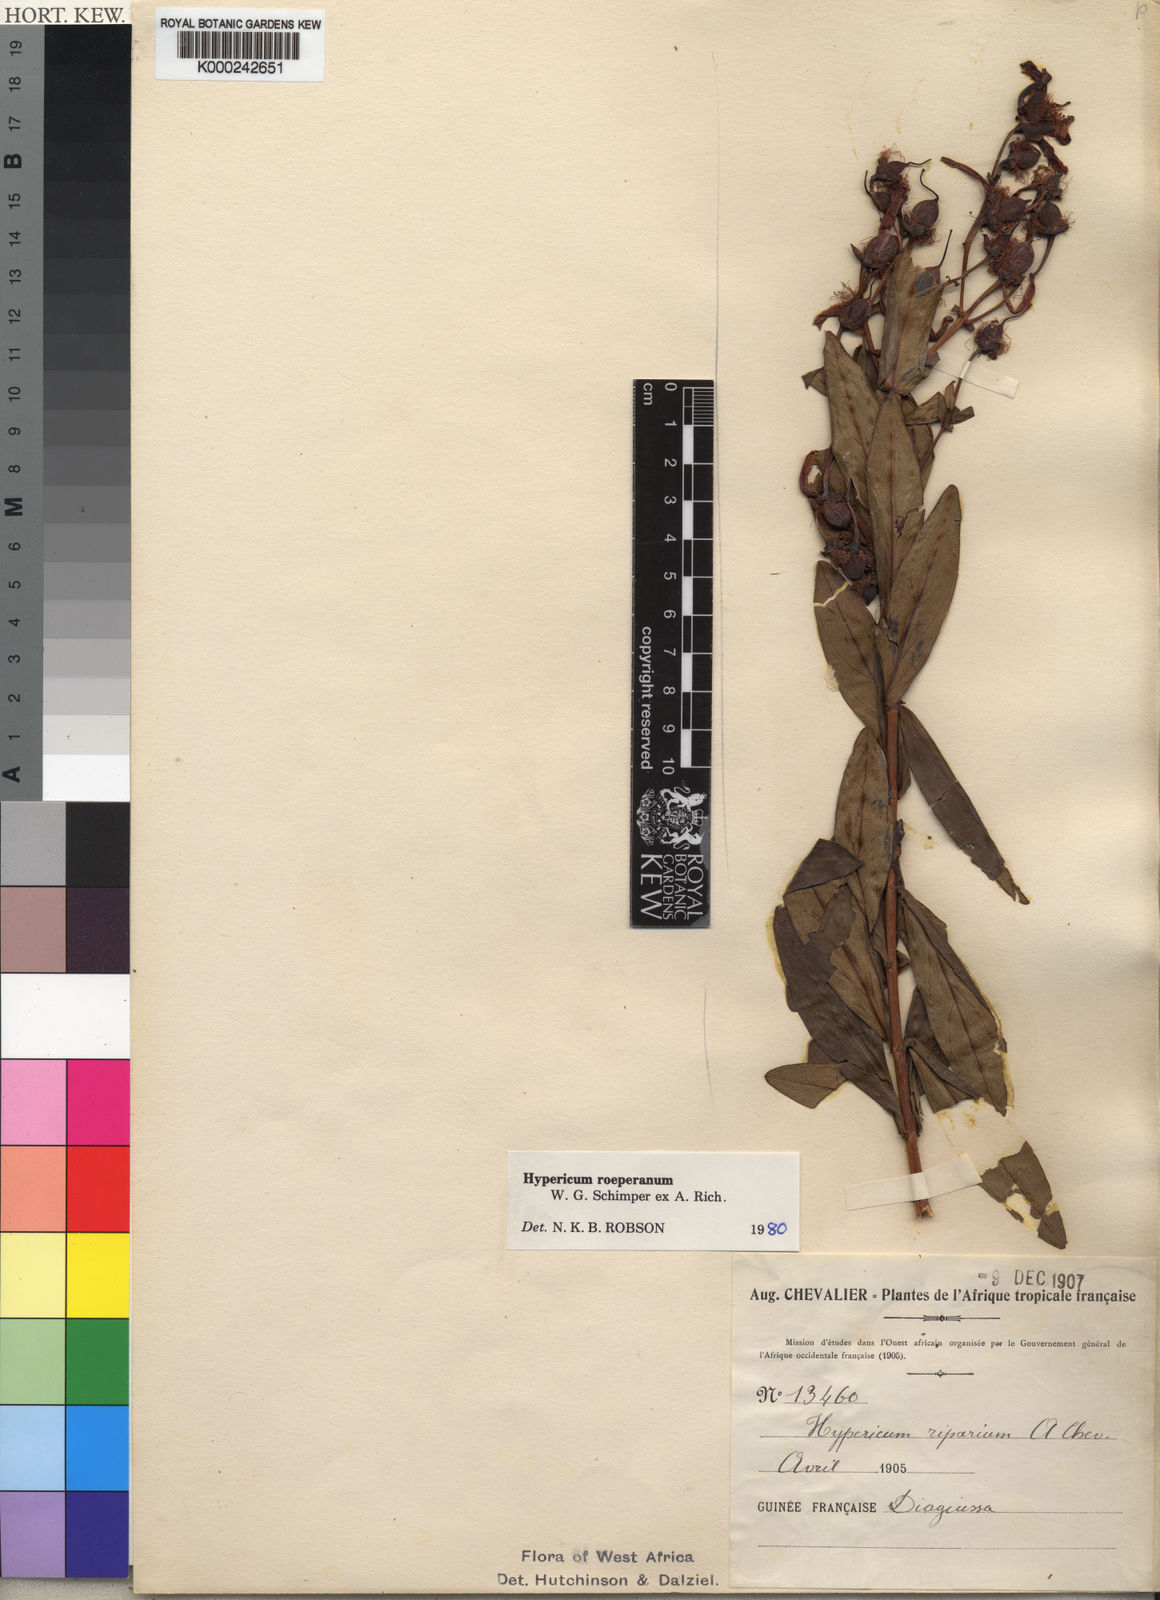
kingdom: Plantae
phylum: Tracheophyta
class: Magnoliopsida
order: Malpighiales
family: Hypericaceae
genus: Hypericum
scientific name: Hypericum
